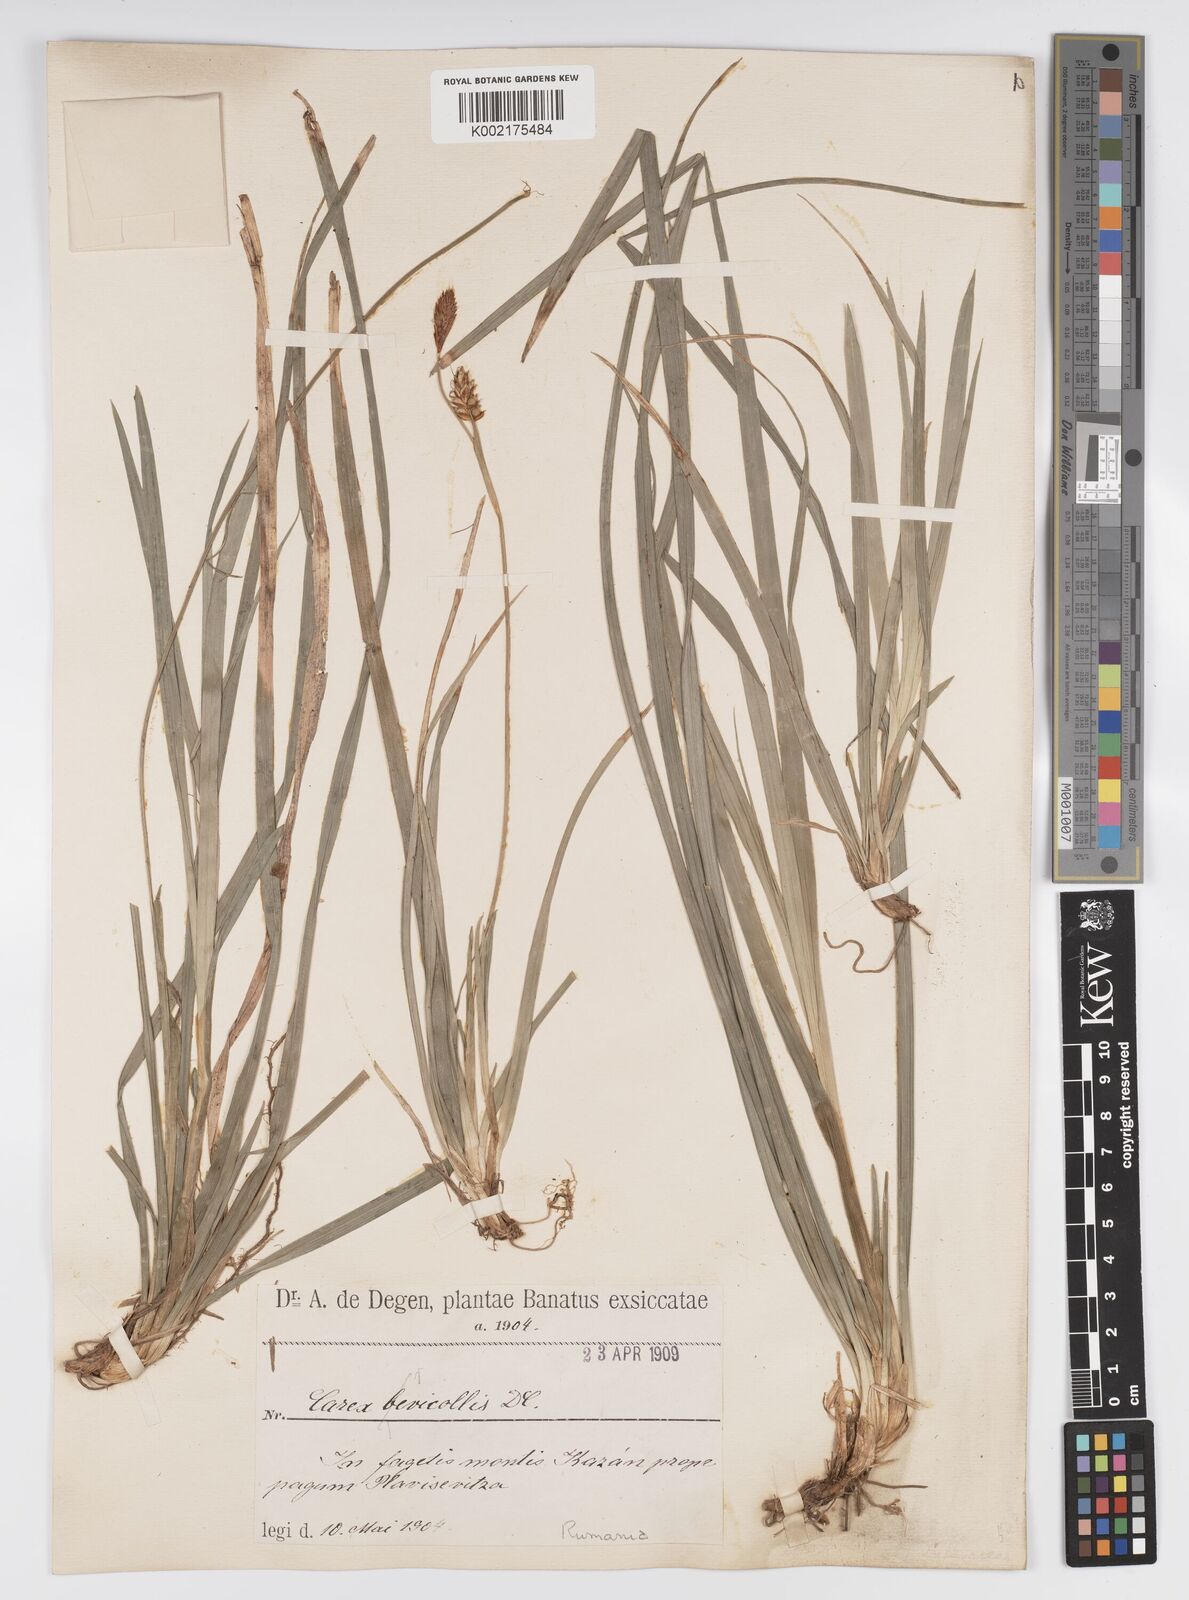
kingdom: Plantae
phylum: Tracheophyta
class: Liliopsida
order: Poales
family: Cyperaceae
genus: Carex
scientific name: Carex brevicollis
